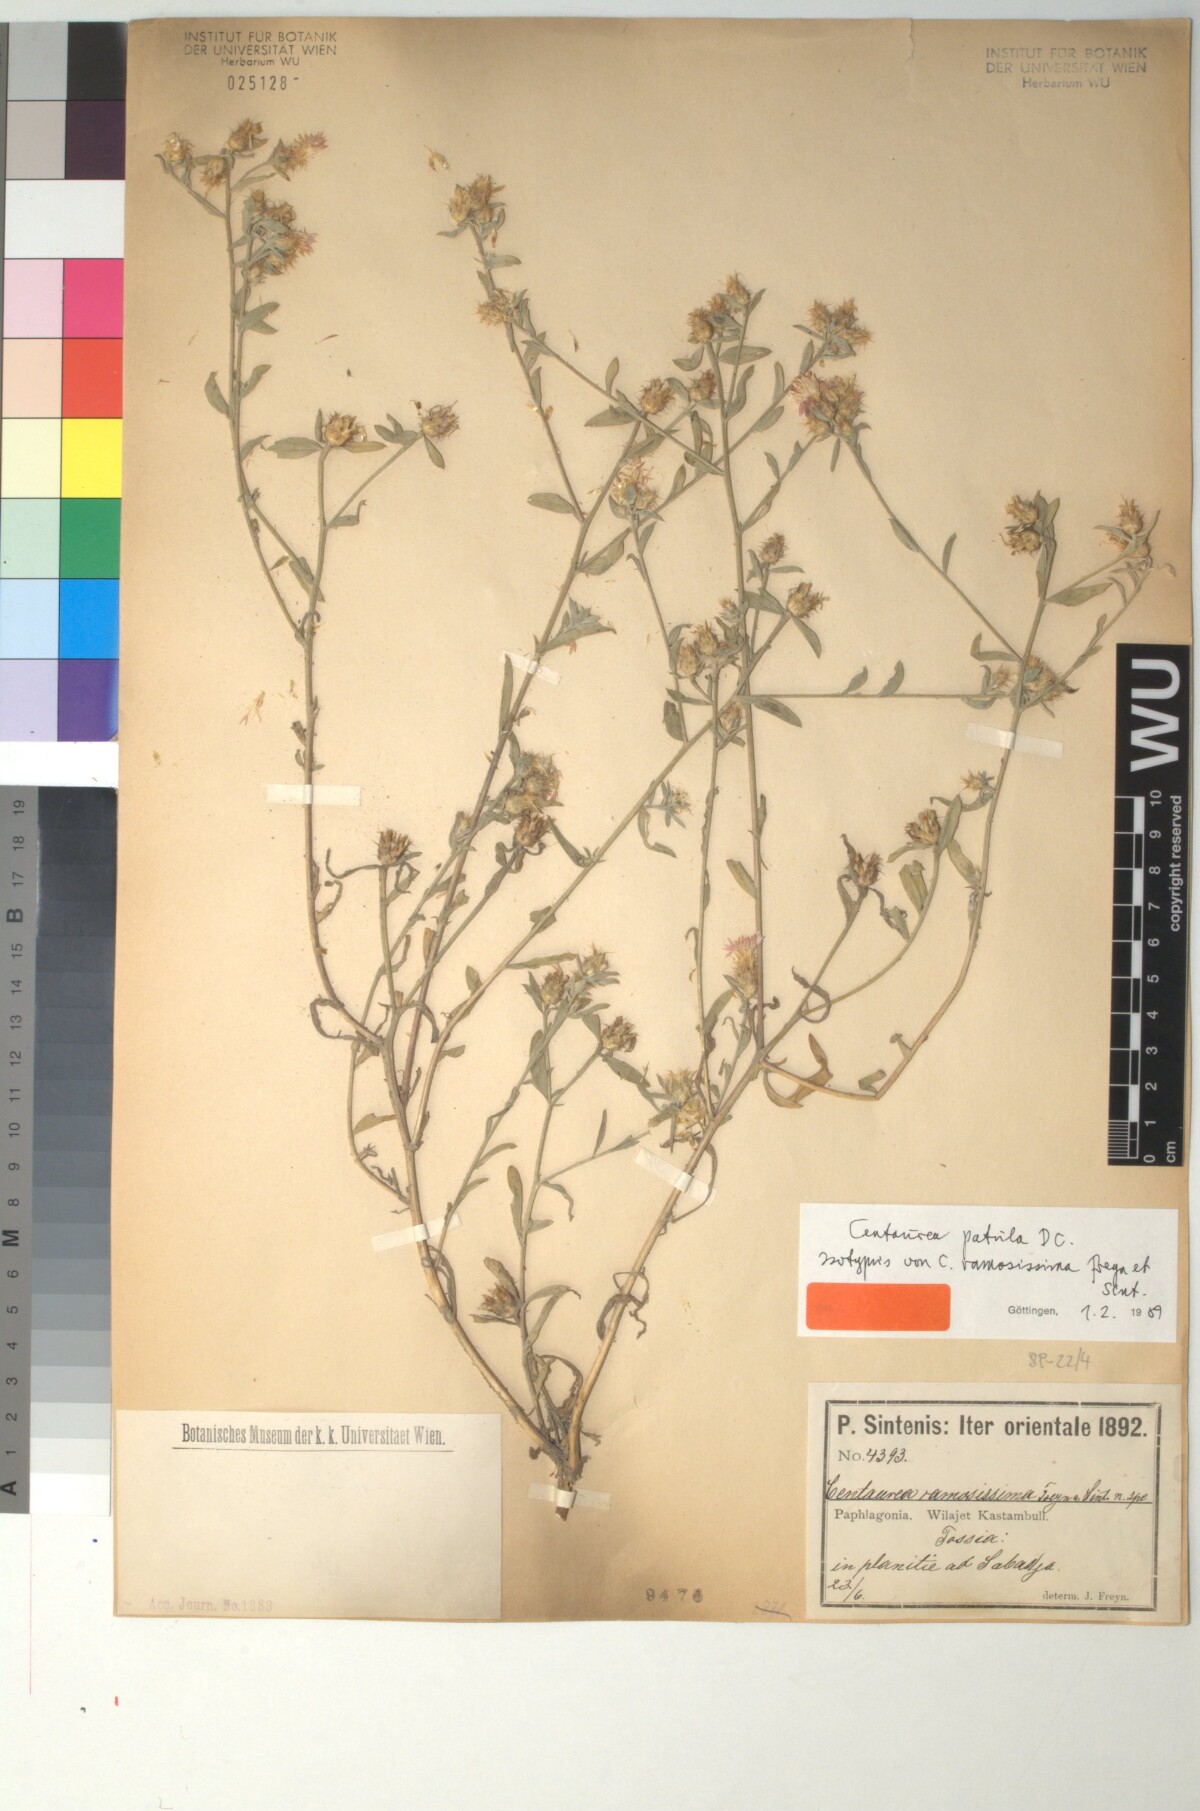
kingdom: Plantae
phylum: Tracheophyta
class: Magnoliopsida
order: Asterales
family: Asteraceae
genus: Callicephalus
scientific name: Callicephalus nitens
